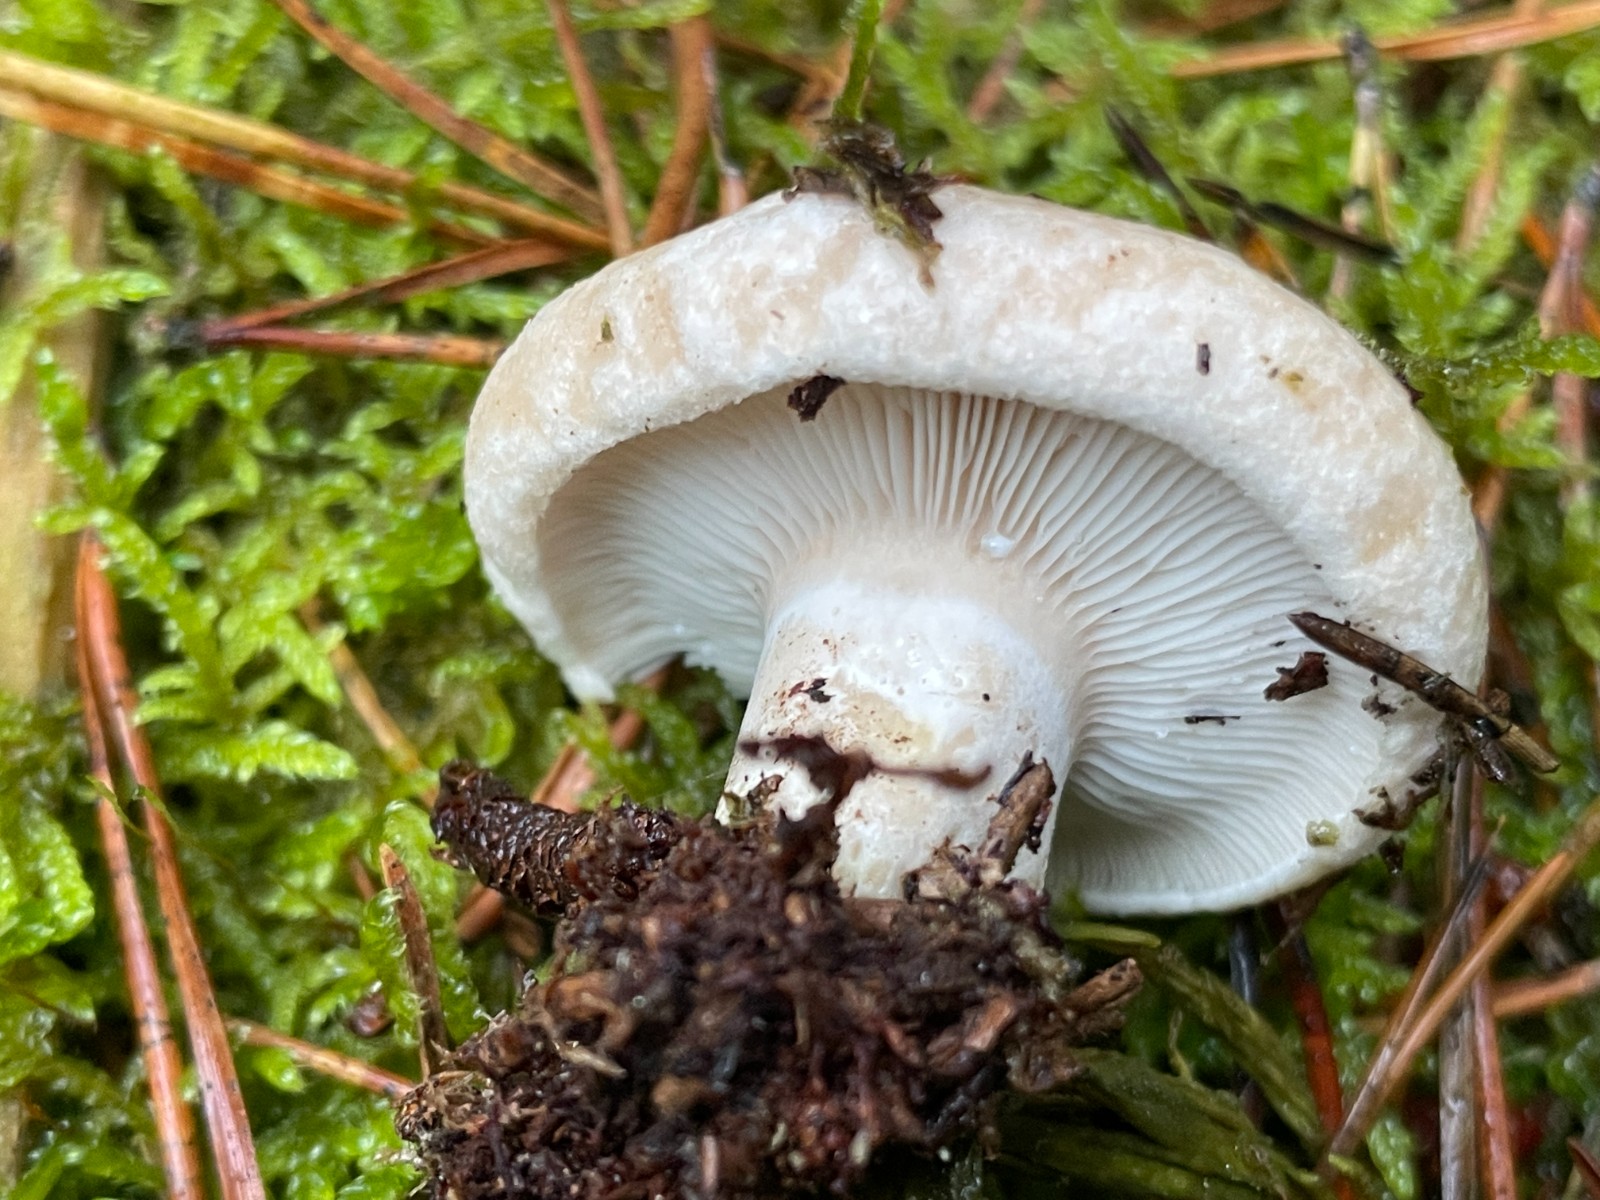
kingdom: Fungi
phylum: Basidiomycota
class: Agaricomycetes
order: Russulales
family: Russulaceae
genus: Lactarius
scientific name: Lactarius musteus
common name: elfenbens-mælkehat
